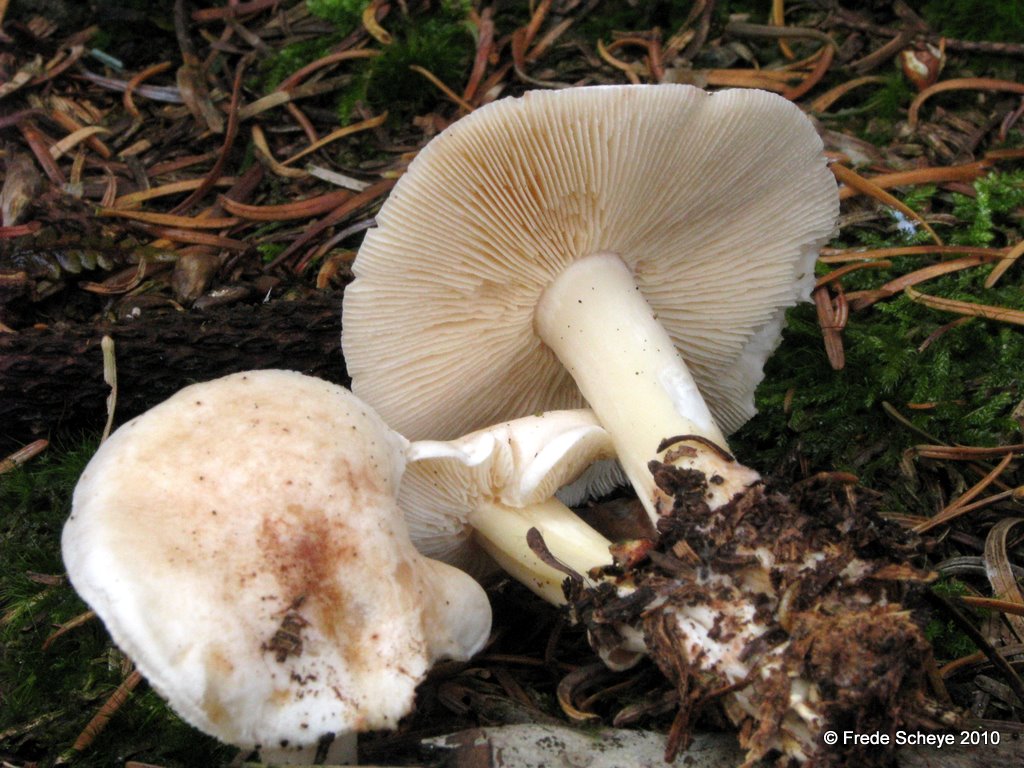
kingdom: Fungi
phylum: Basidiomycota
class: Agaricomycetes
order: Agaricales
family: Omphalotaceae
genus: Rhodocollybia
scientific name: Rhodocollybia maculata
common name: plettet fladhat
